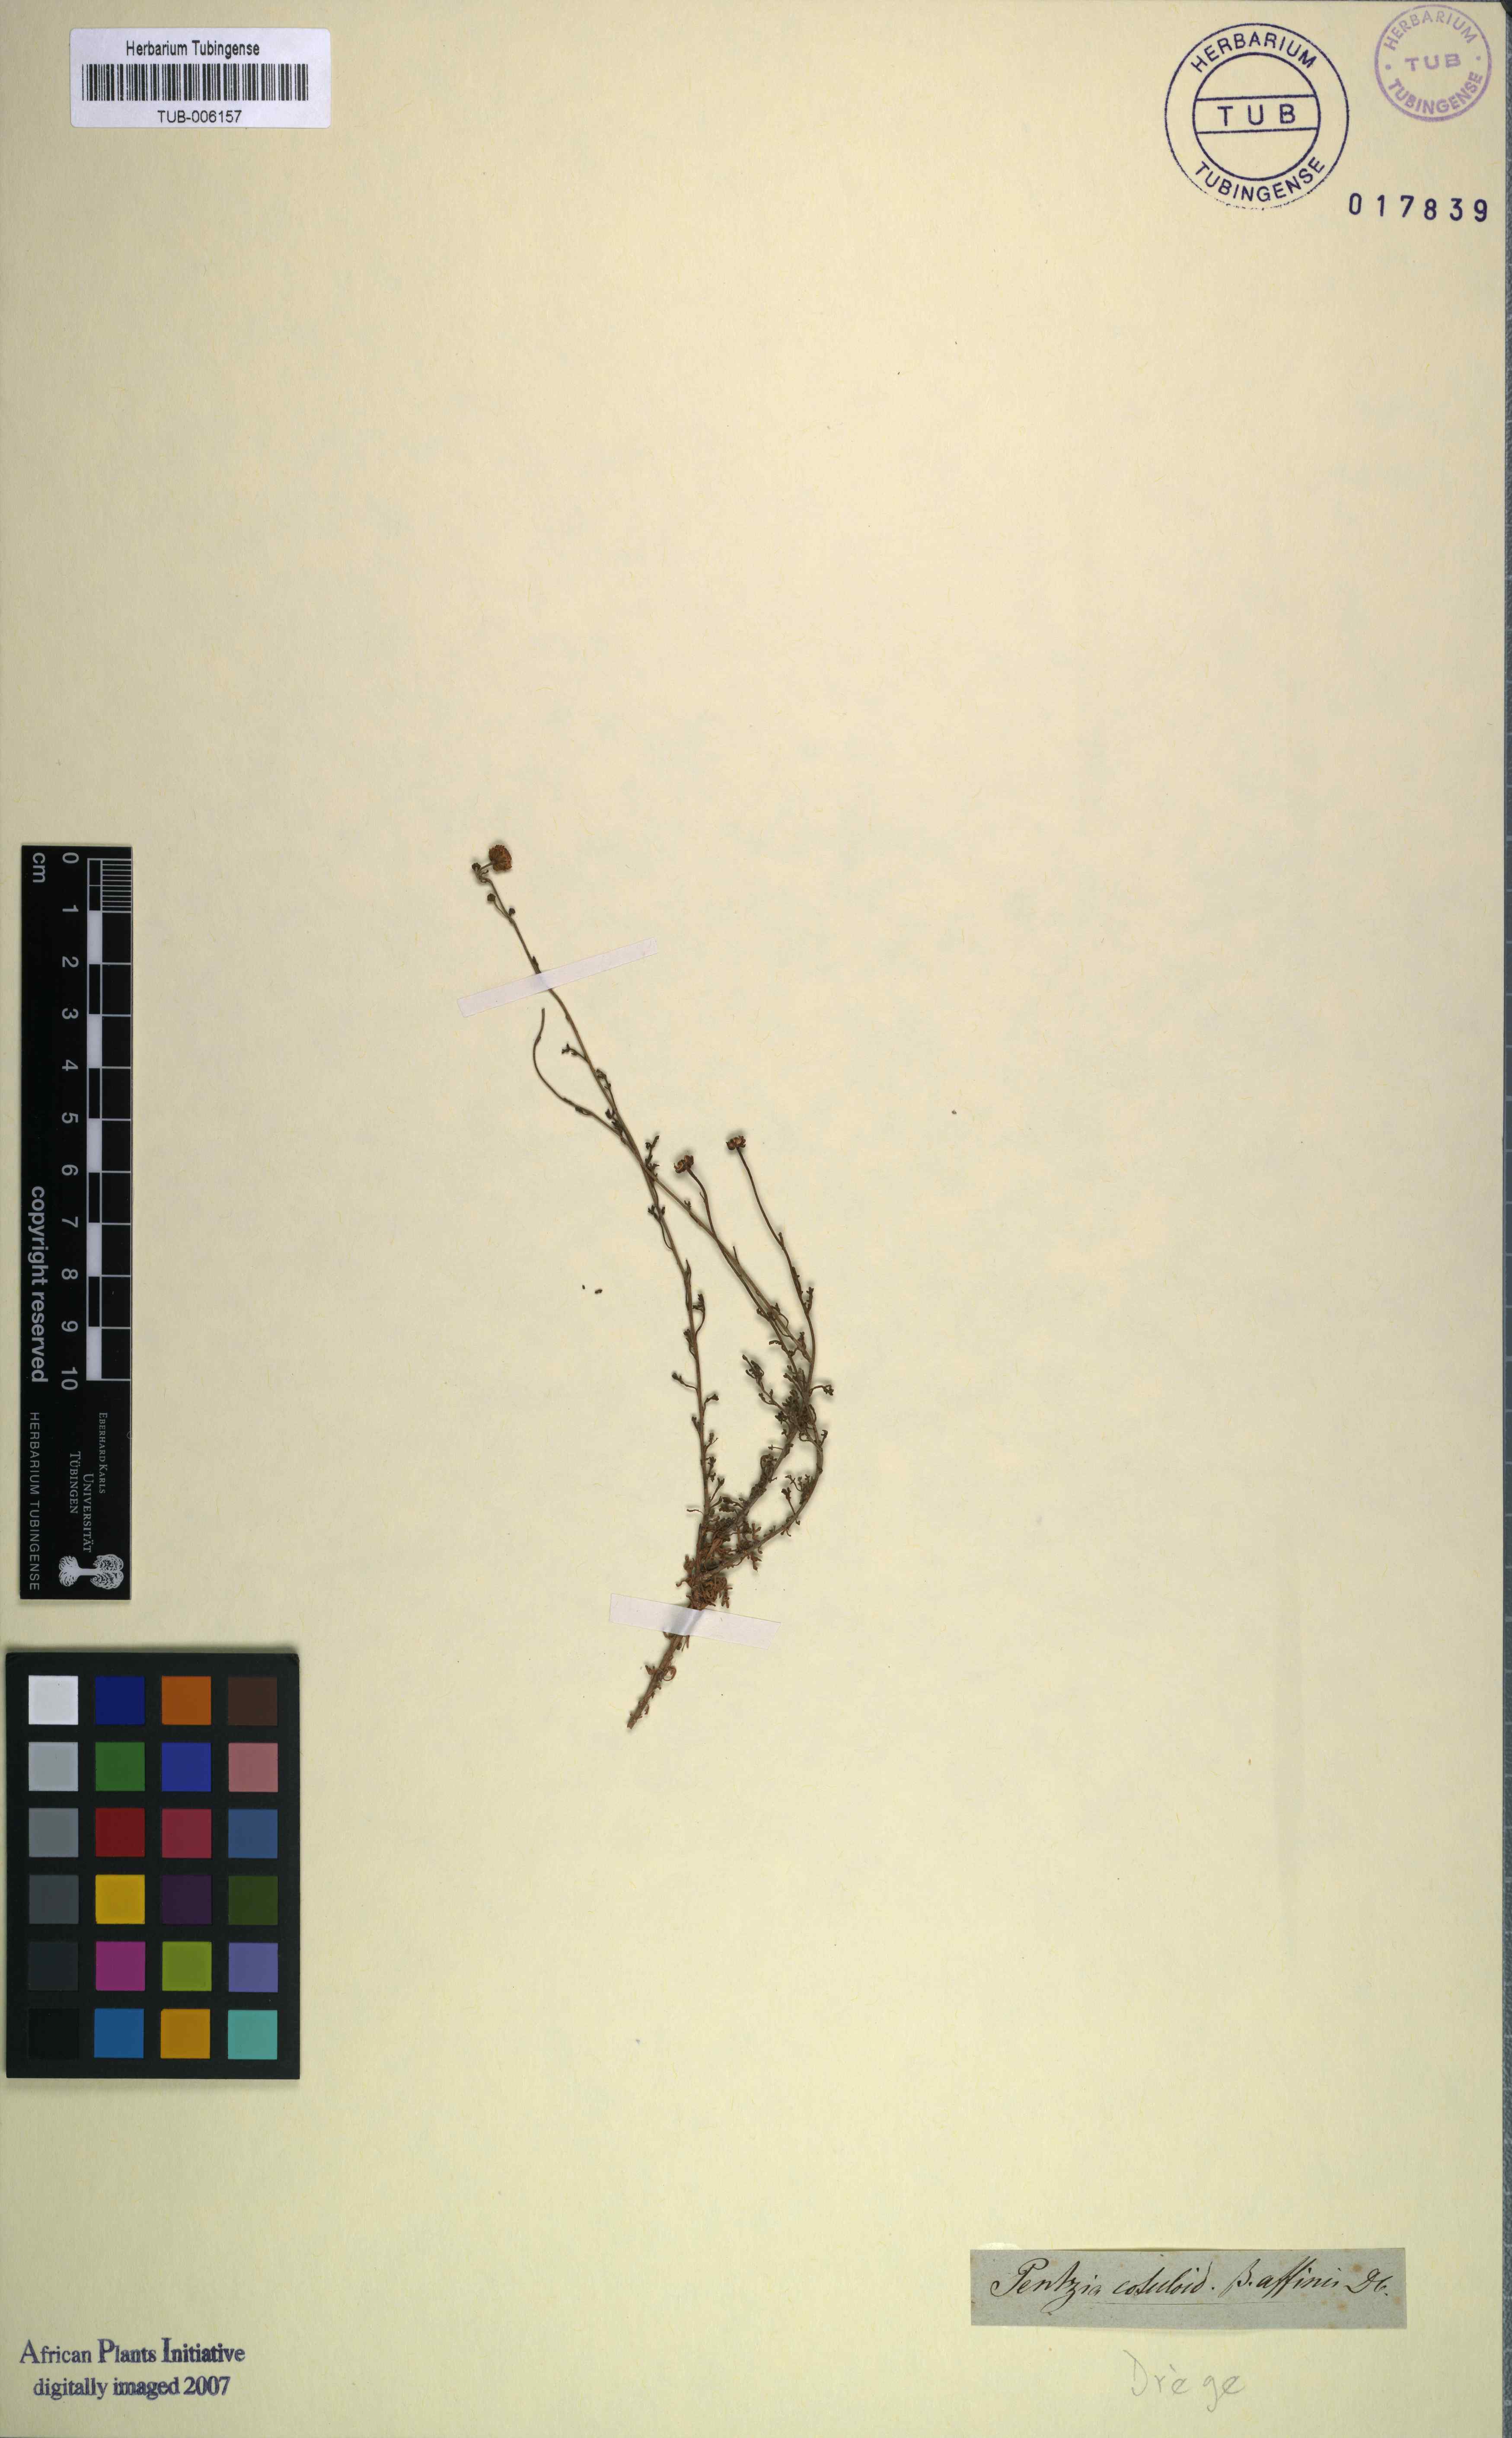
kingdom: Plantae
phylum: Tracheophyta
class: Magnoliopsida
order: Asterales
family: Asteraceae
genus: Pentzia
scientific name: Pentzia incana
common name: African sheepbush
